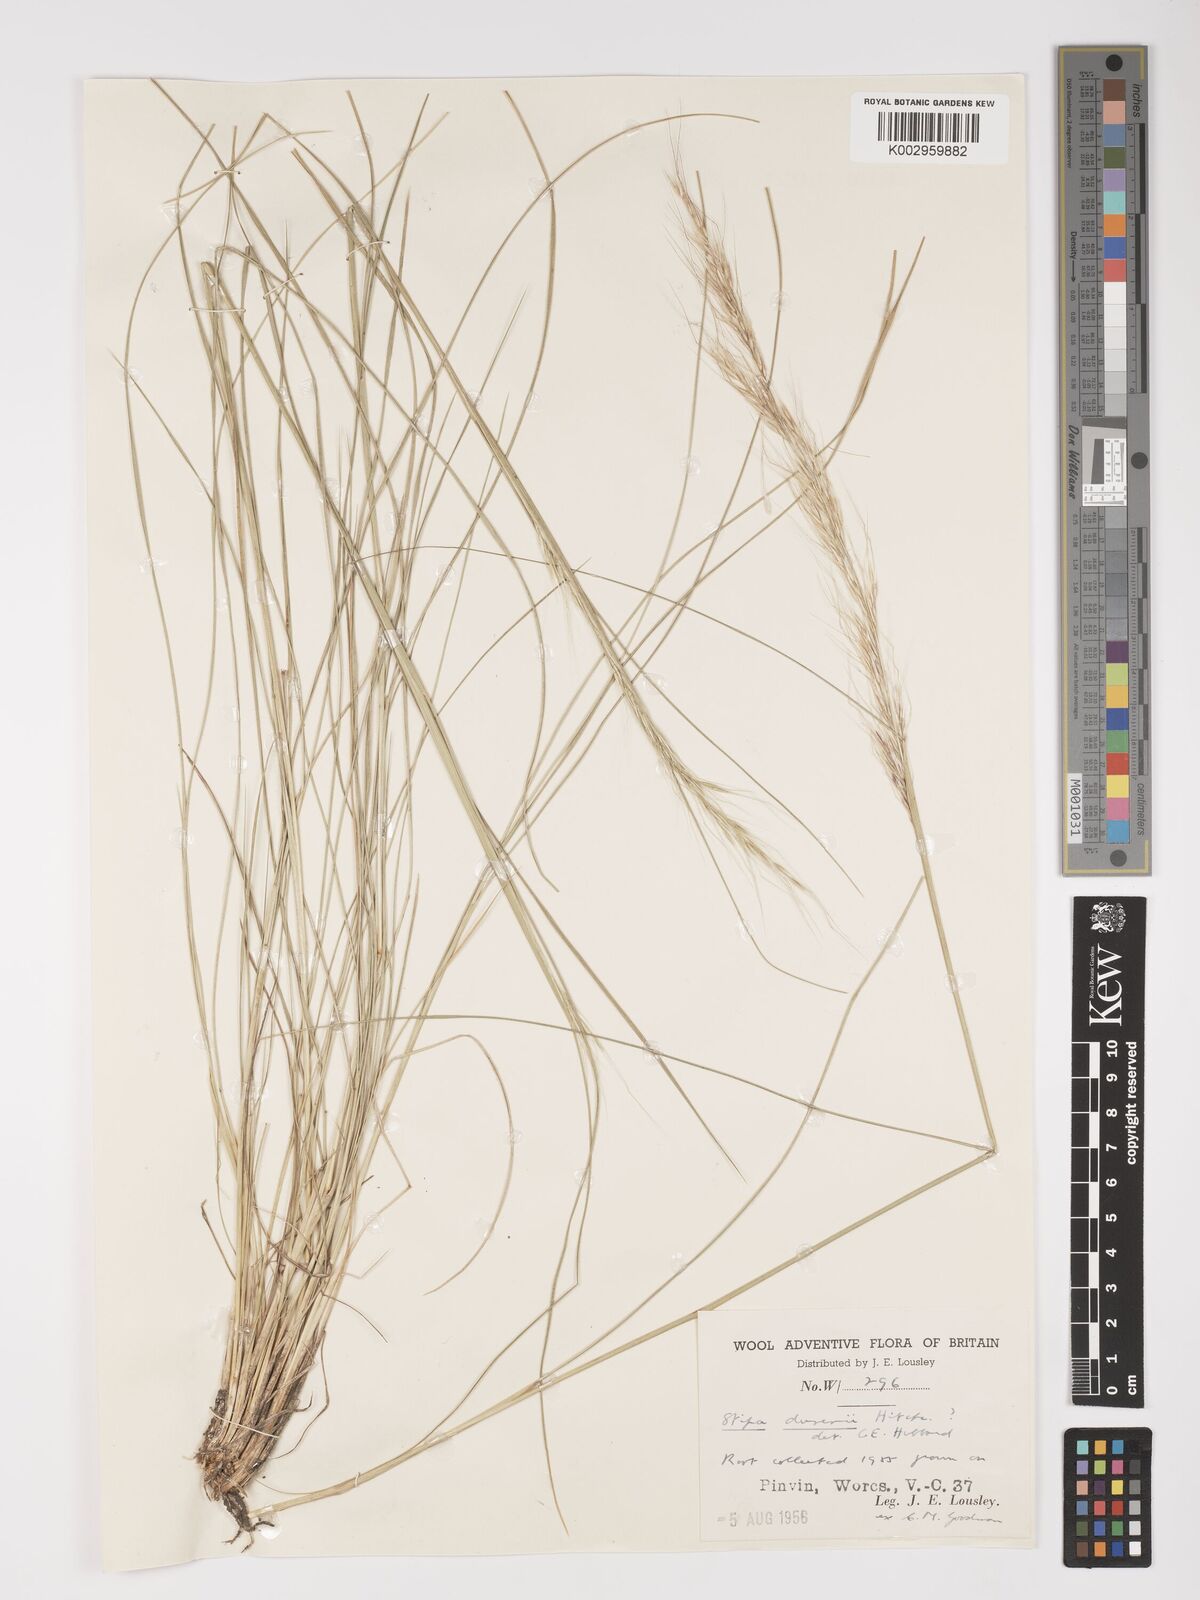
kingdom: Plantae
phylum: Tracheophyta
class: Liliopsida
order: Poales
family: Poaceae
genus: Amelichloa
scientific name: Amelichloa ambigua
